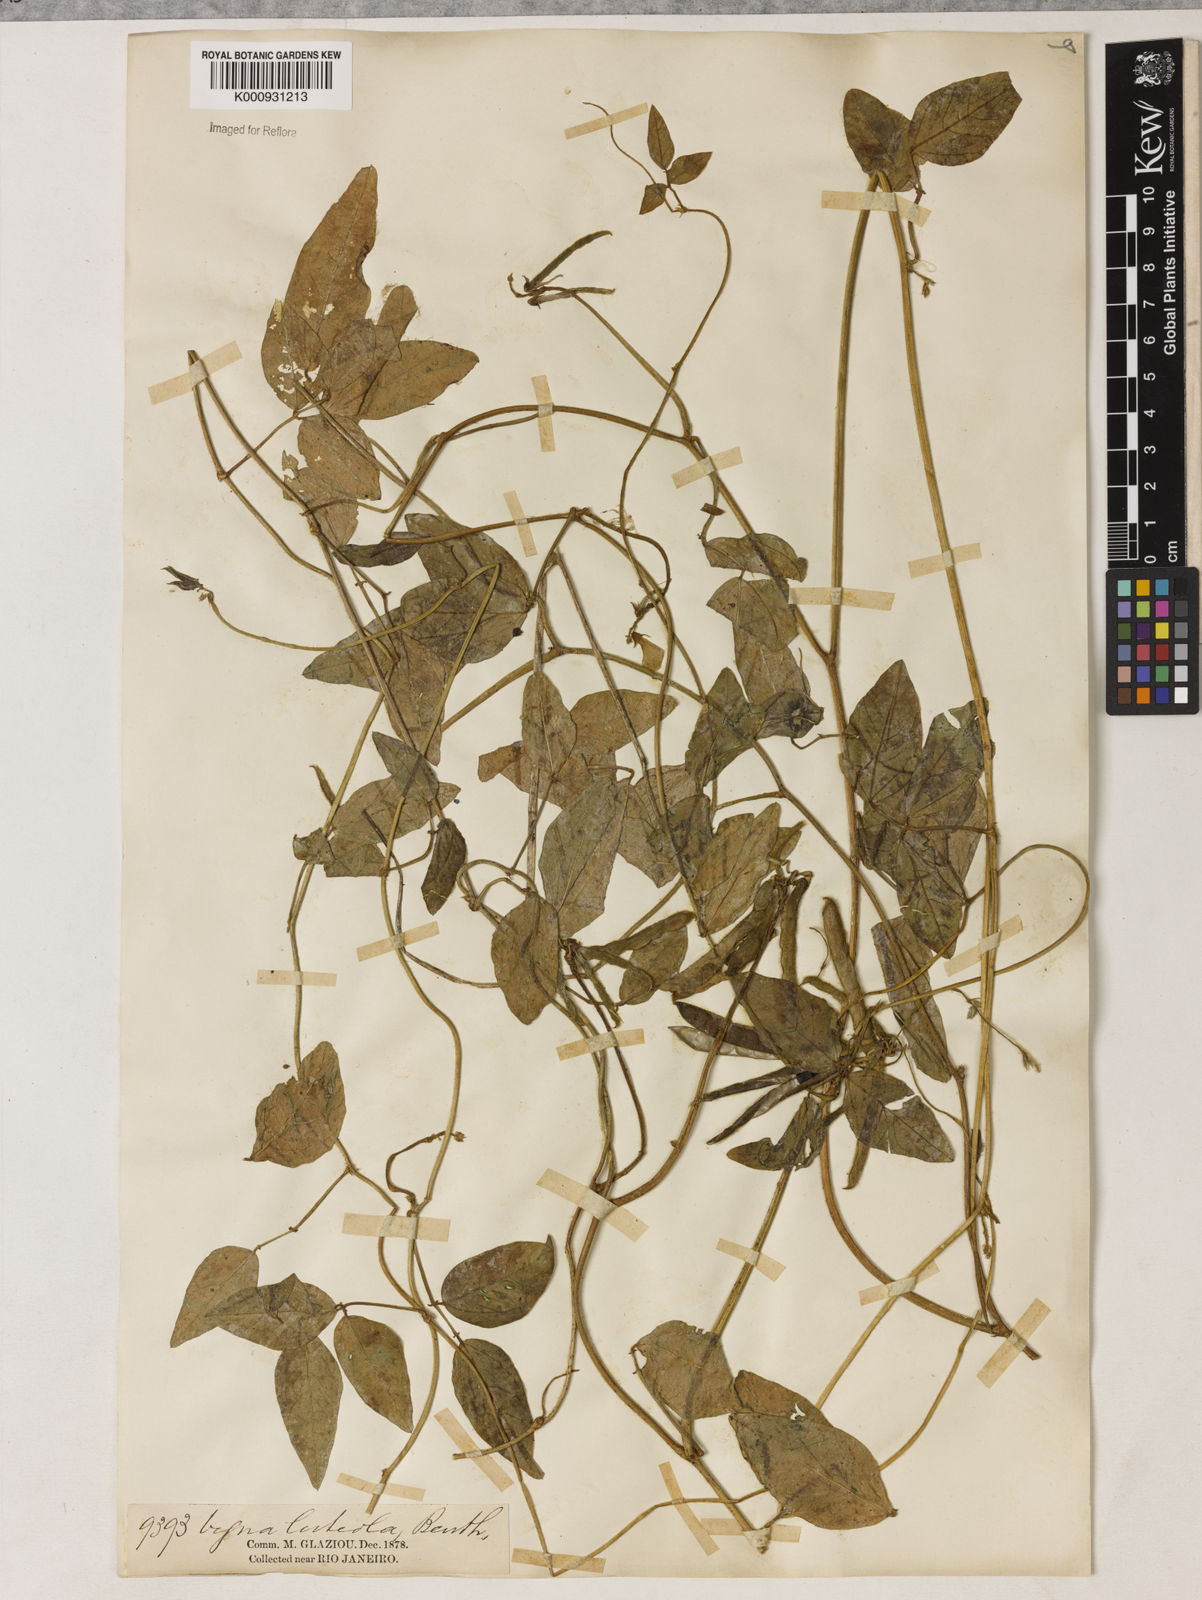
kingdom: Plantae
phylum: Tracheophyta
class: Magnoliopsida
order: Fabales
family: Fabaceae
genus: Vigna
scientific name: Vigna luteola
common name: Hairypod cowpea
